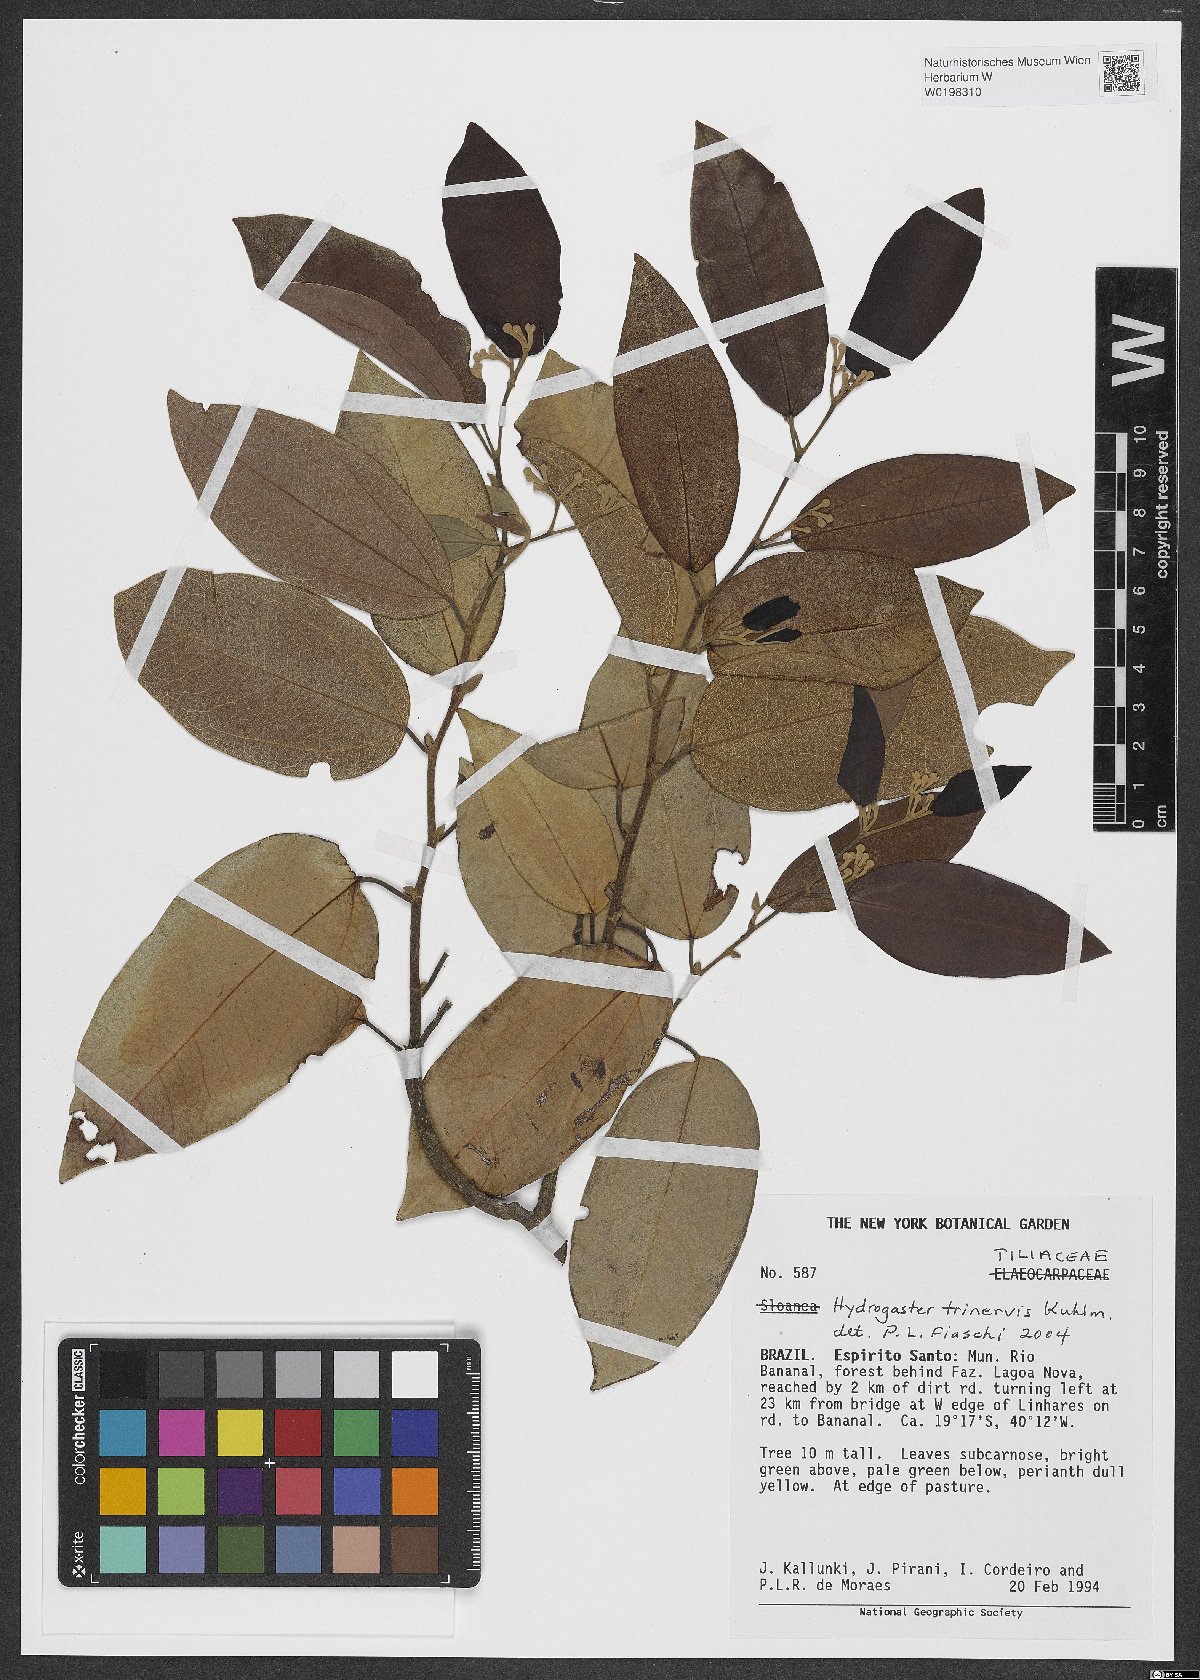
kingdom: Plantae
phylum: Tracheophyta
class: Magnoliopsida
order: Malvales
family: Malvaceae
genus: Hydrogaster
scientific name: Hydrogaster trinervis
